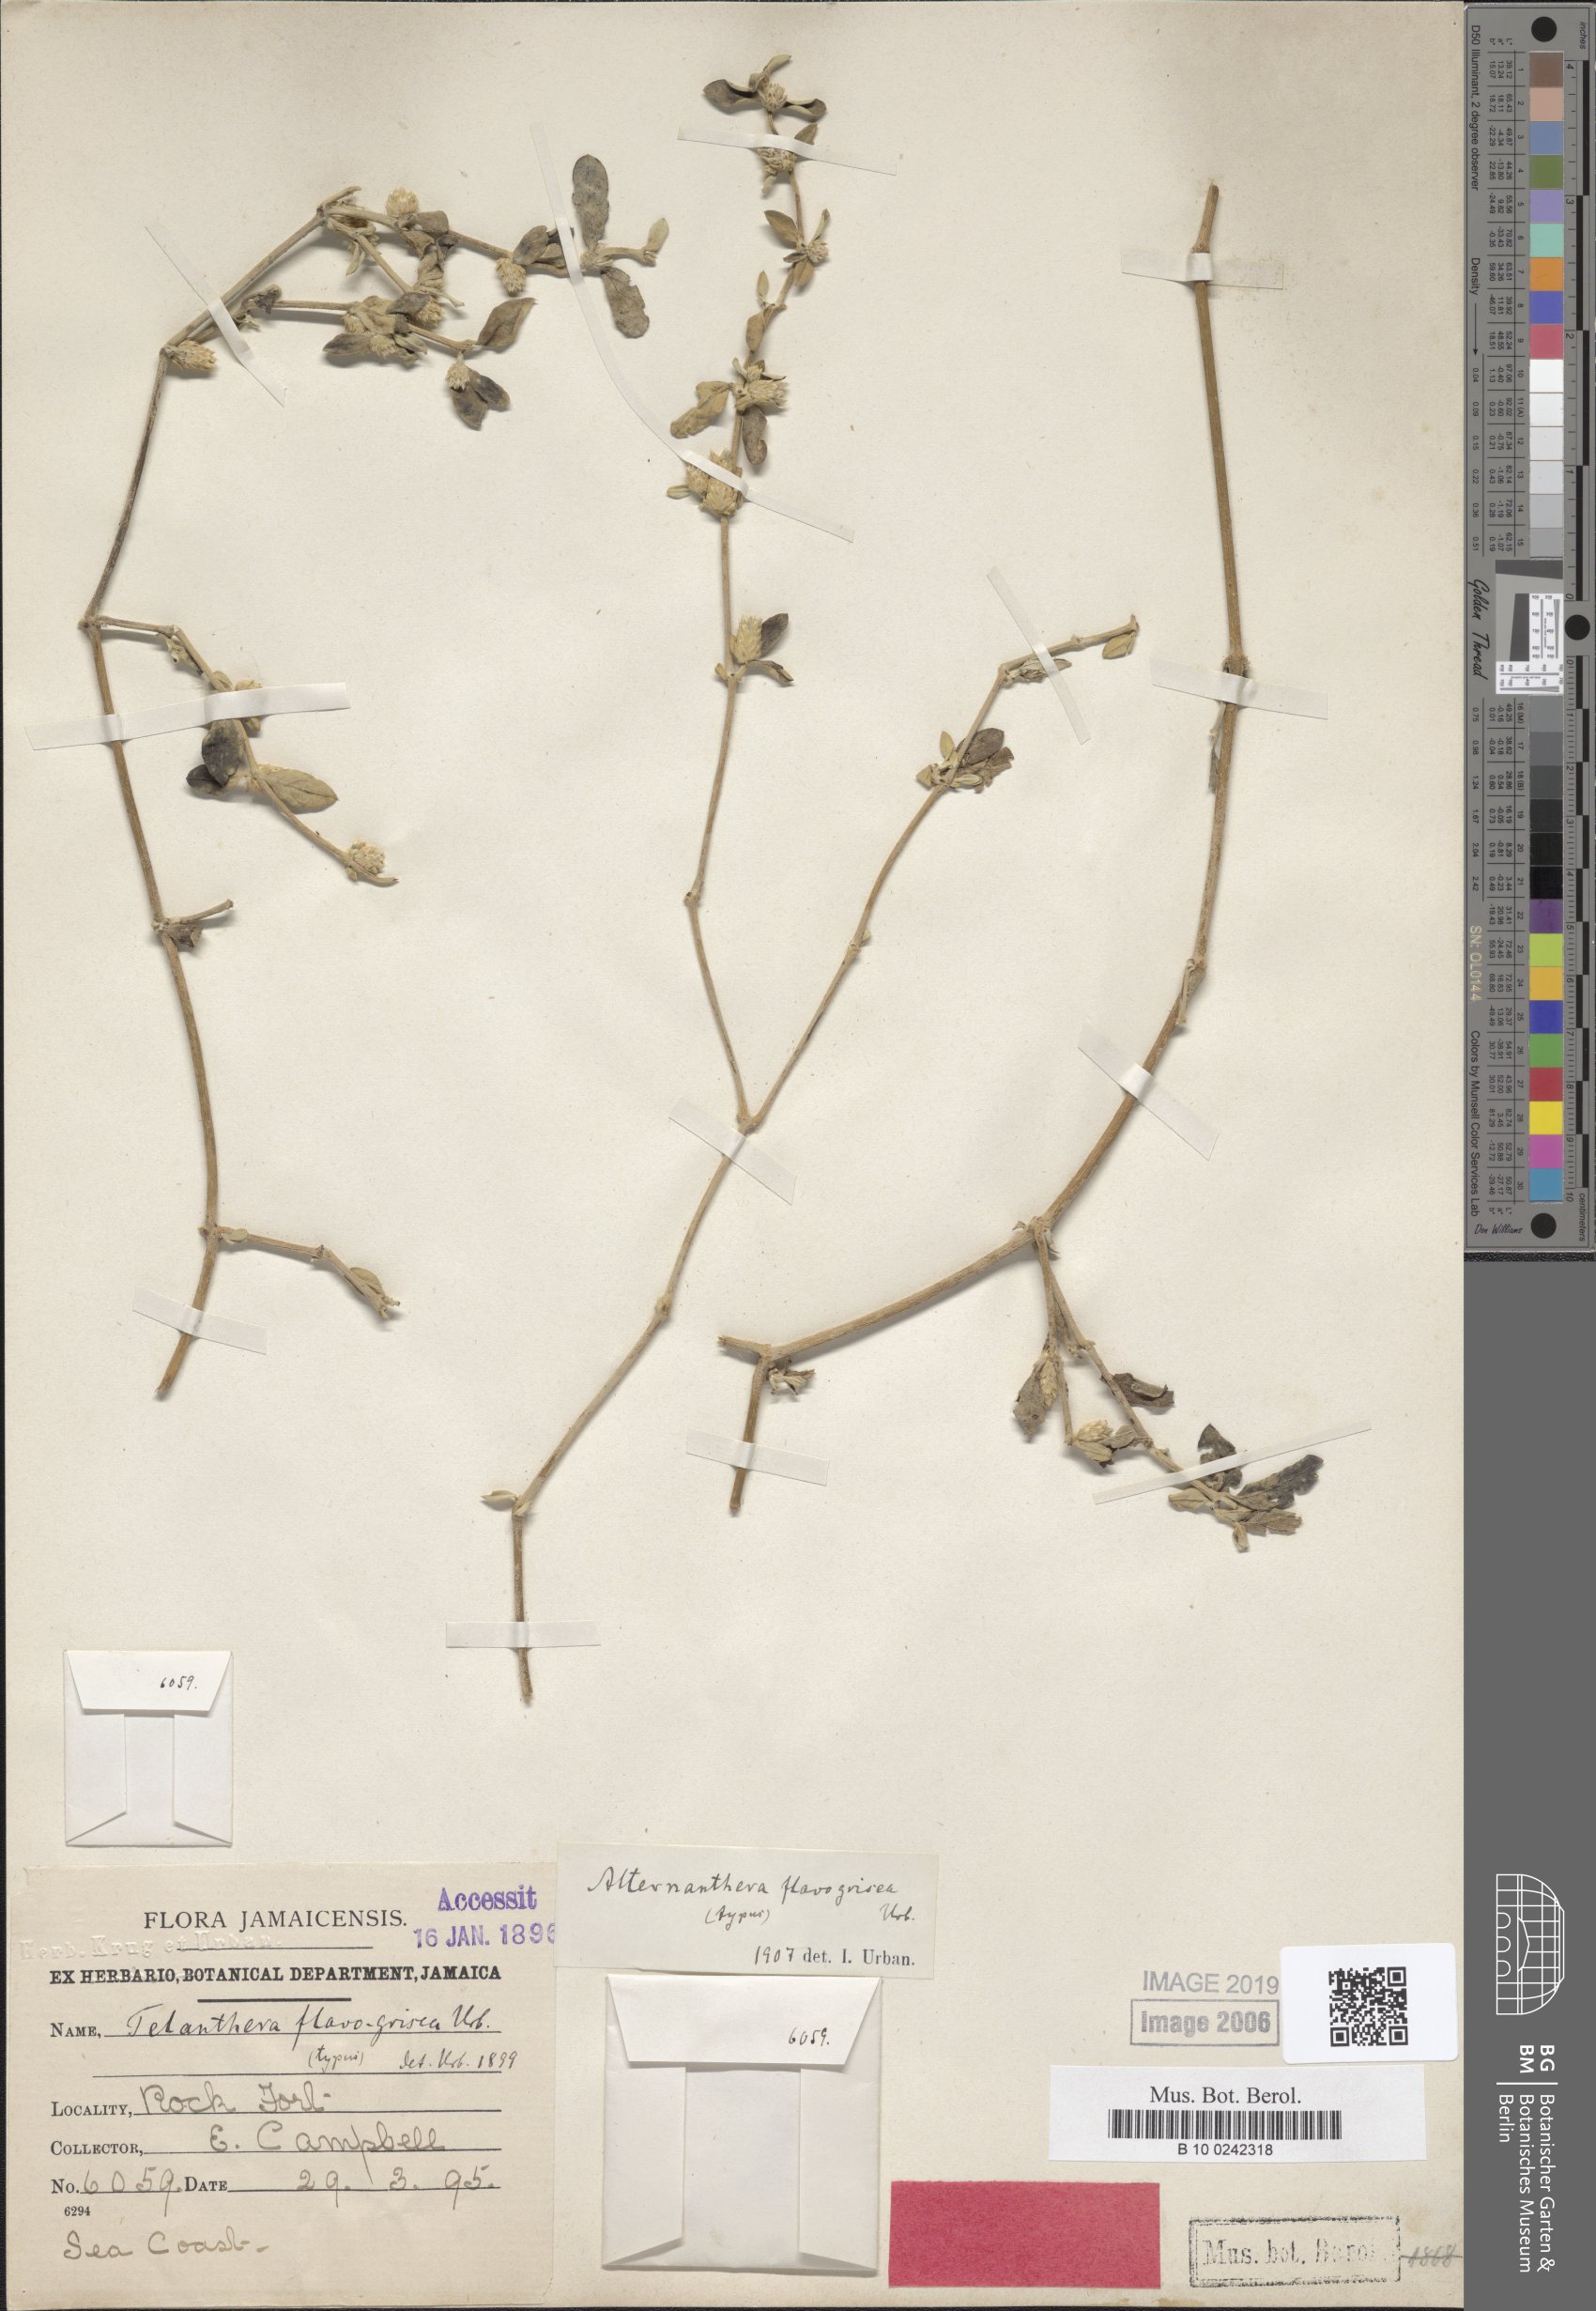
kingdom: Plantae
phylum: Tracheophyta
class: Magnoliopsida
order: Caryophyllales
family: Amaranthaceae
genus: Alternanthera
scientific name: Alternanthera halimifolia
